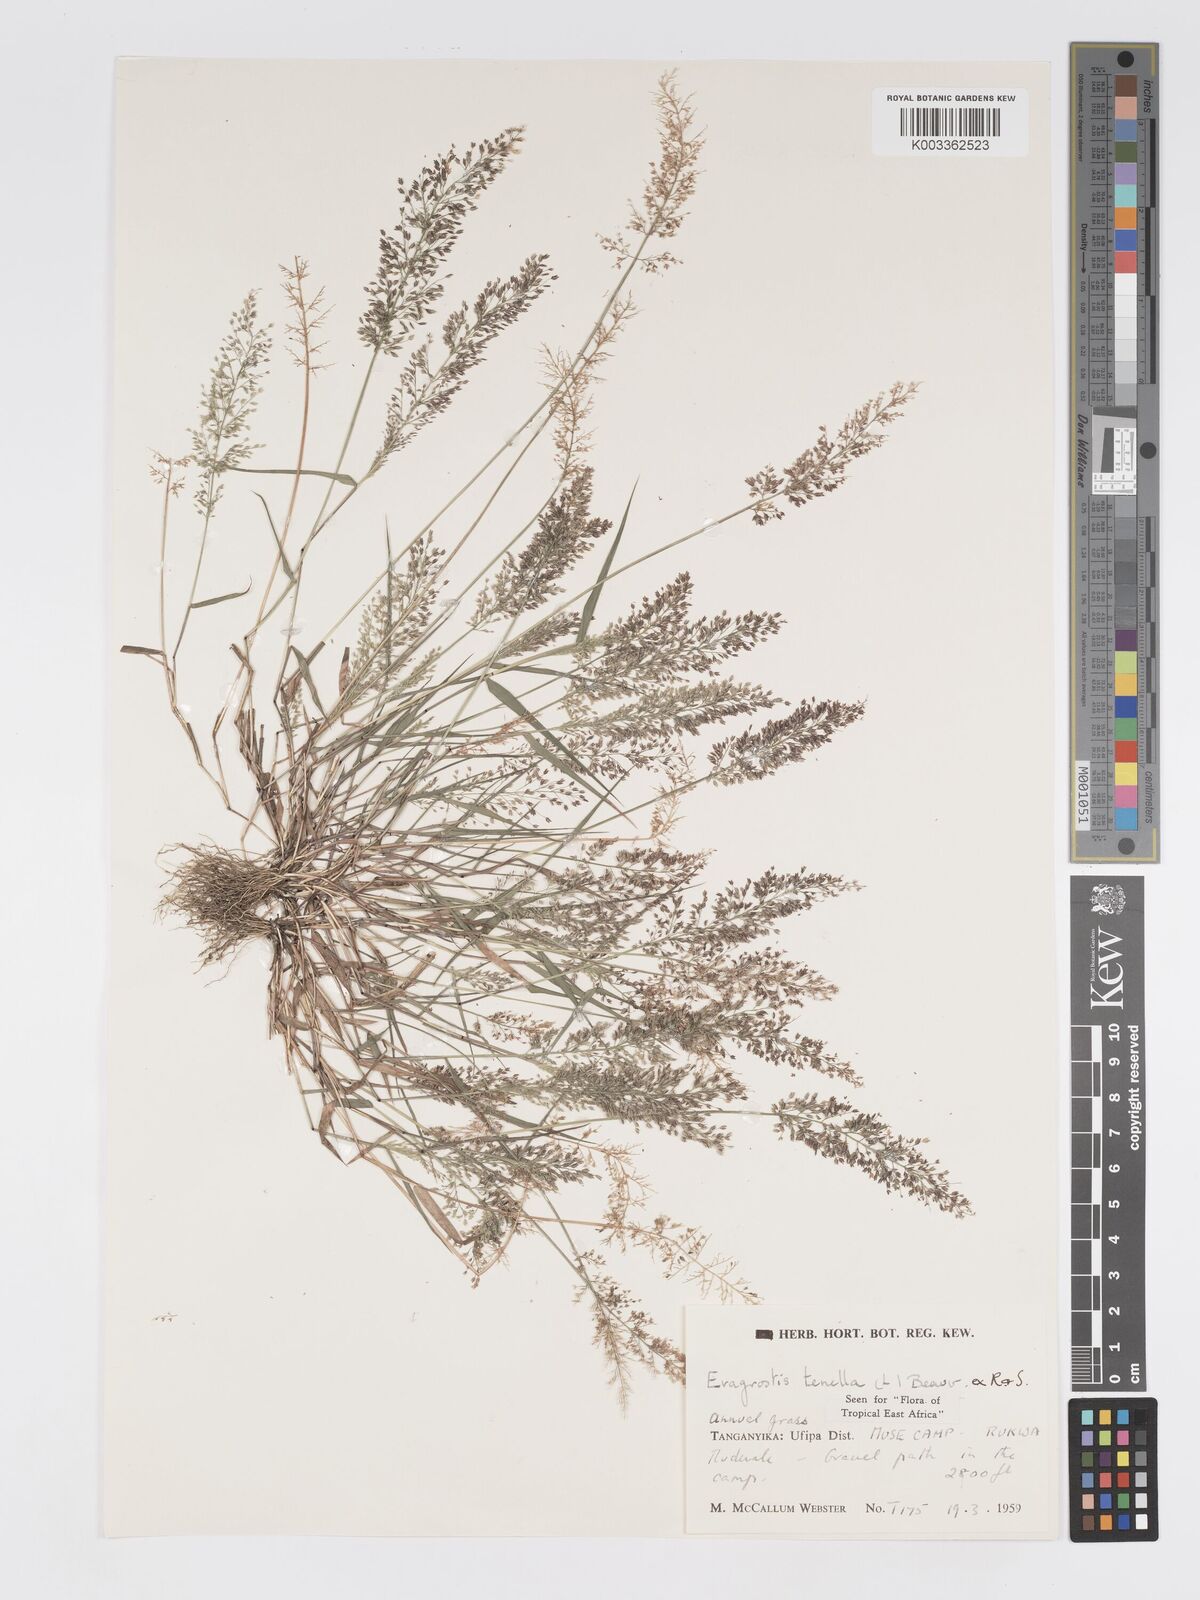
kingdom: Plantae
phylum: Tracheophyta
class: Liliopsida
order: Poales
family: Poaceae
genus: Eragrostis
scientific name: Eragrostis tenella
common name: Japanese lovegrass
